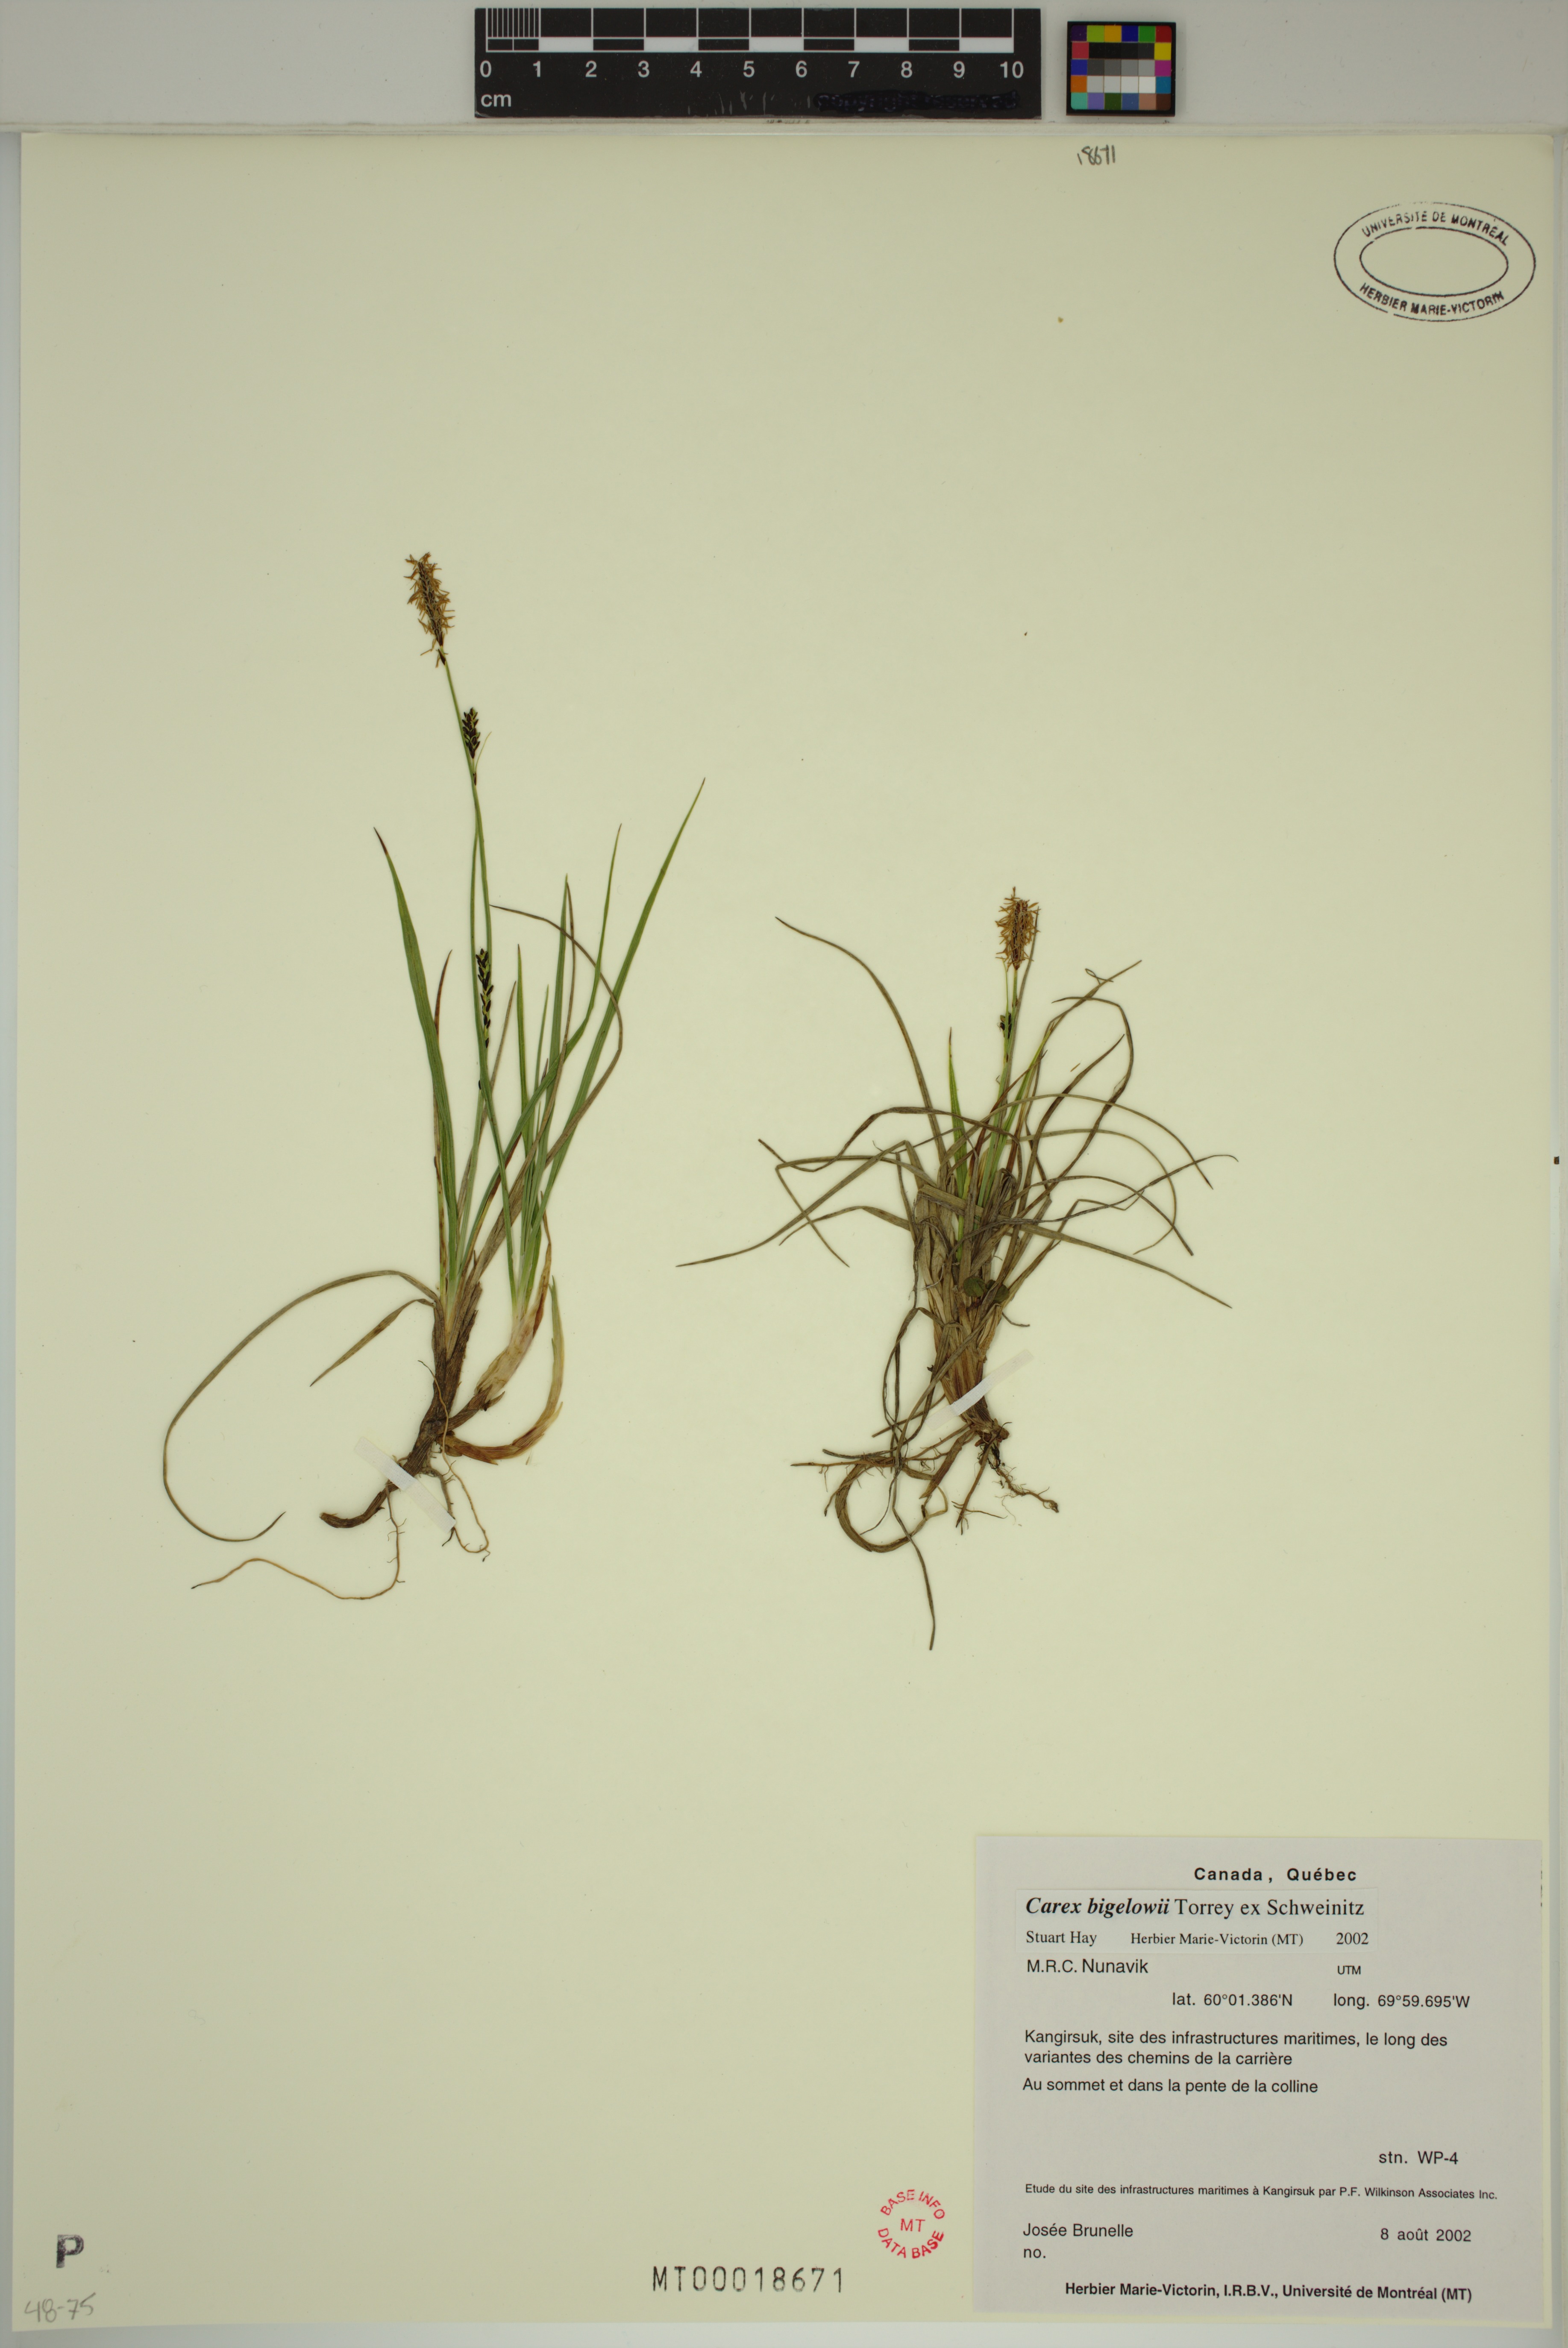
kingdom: Plantae
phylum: Tracheophyta
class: Liliopsida
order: Poales
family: Cyperaceae
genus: Carex
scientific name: Carex bigelowii
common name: Stiff sedge
